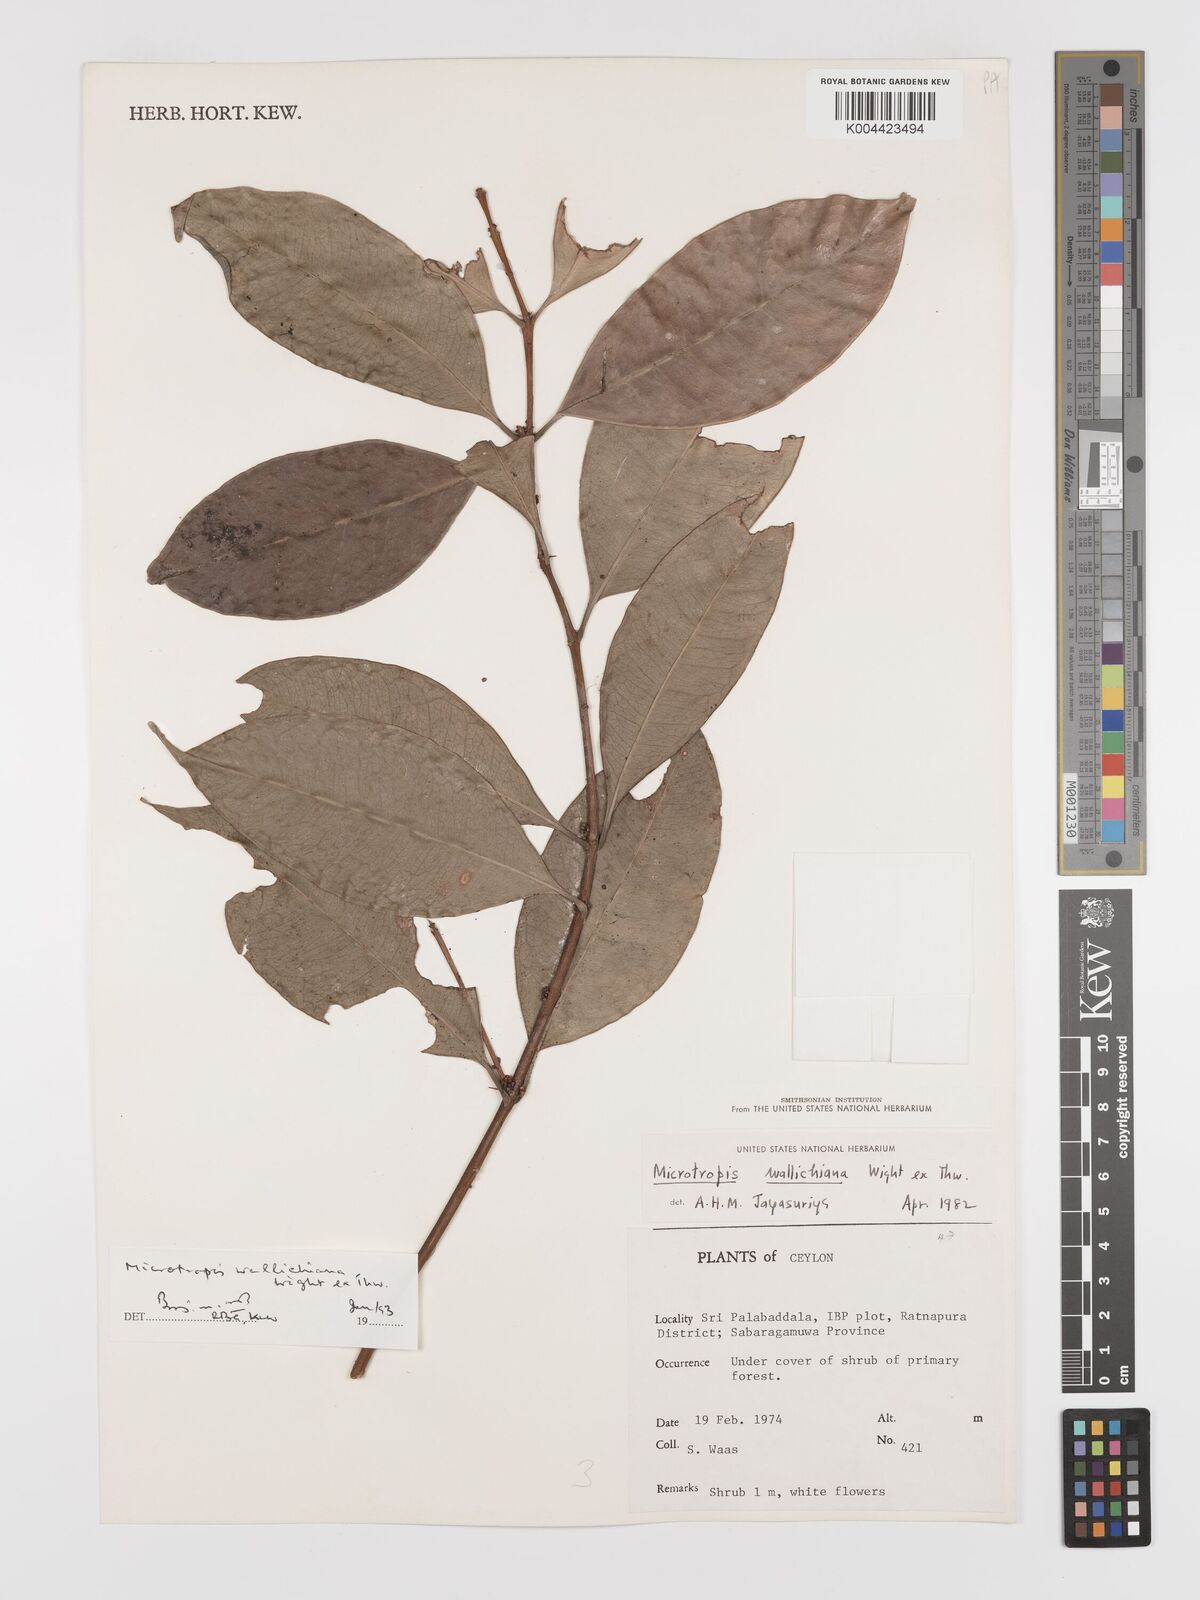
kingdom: Plantae
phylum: Tracheophyta
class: Magnoliopsida
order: Celastrales
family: Celastraceae
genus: Microtropis
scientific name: Microtropis wallichiana
